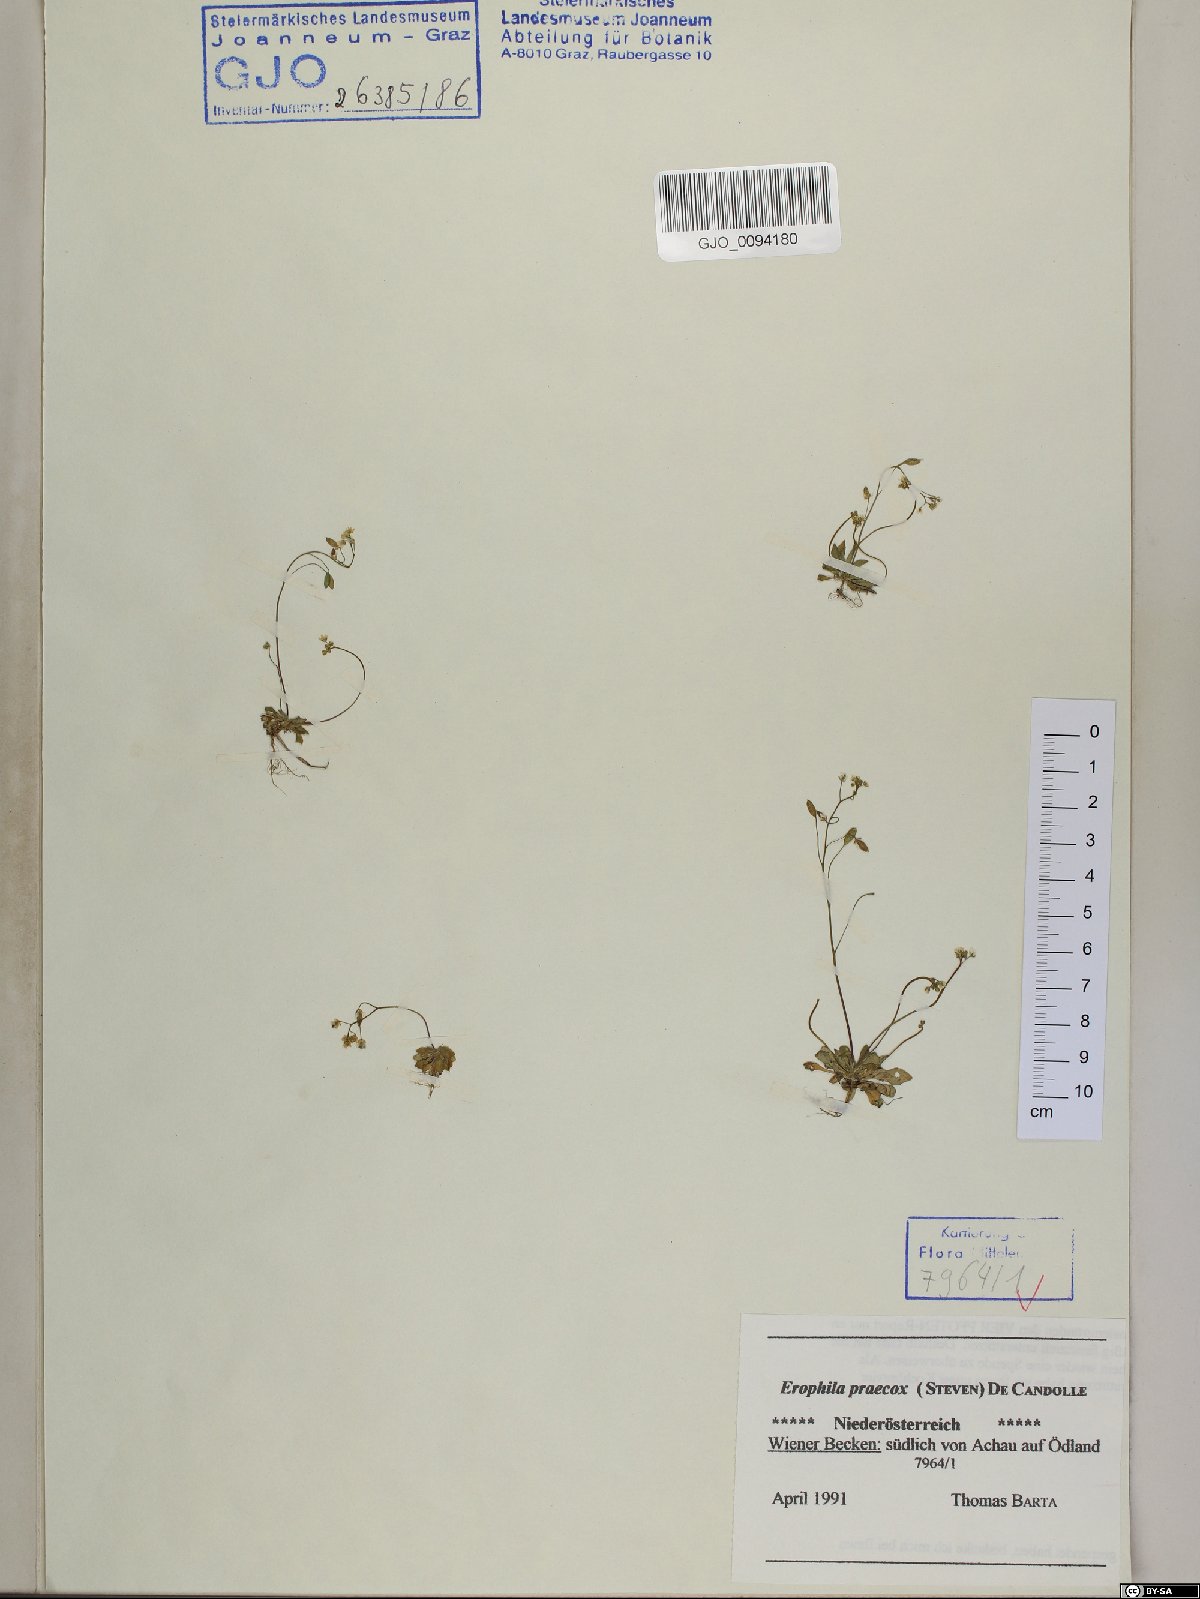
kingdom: Plantae
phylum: Tracheophyta
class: Magnoliopsida
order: Brassicales
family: Brassicaceae
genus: Draba
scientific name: Draba verna
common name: Spring draba
